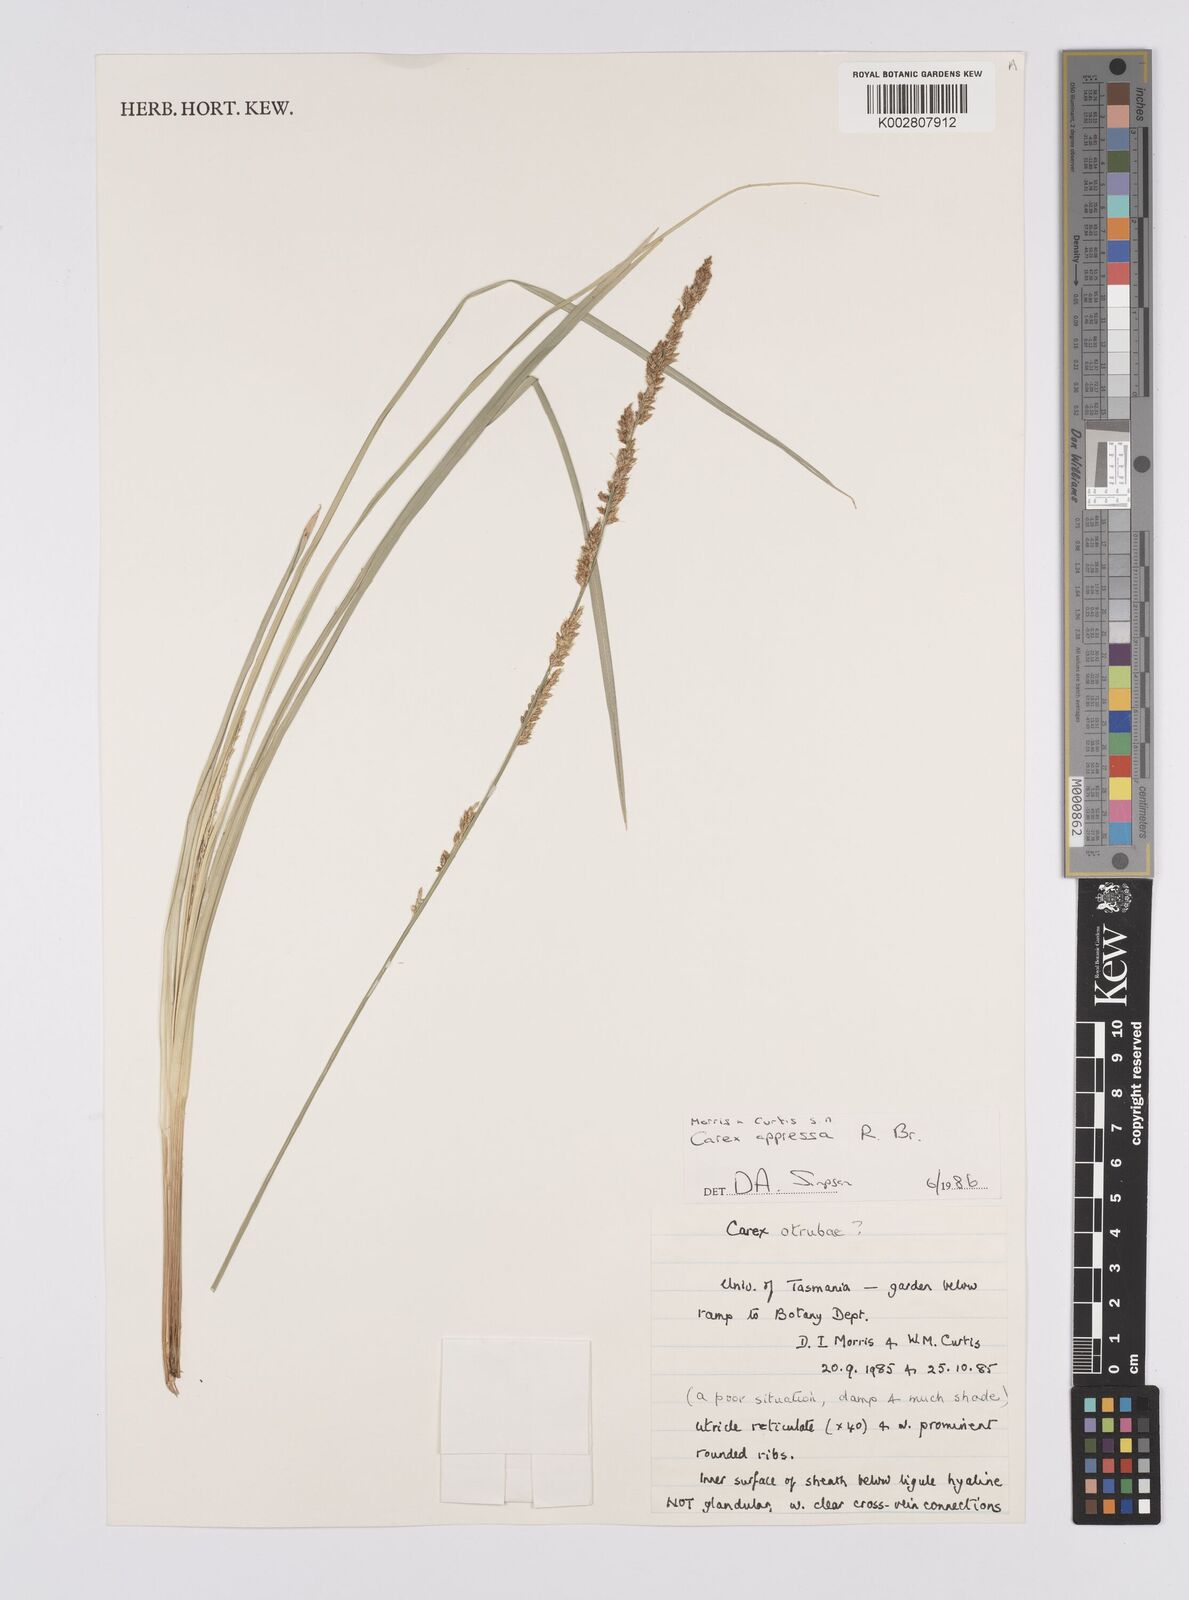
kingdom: Plantae
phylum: Tracheophyta
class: Liliopsida
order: Poales
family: Cyperaceae
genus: Carex
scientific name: Carex appressa
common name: Tussock sedge
